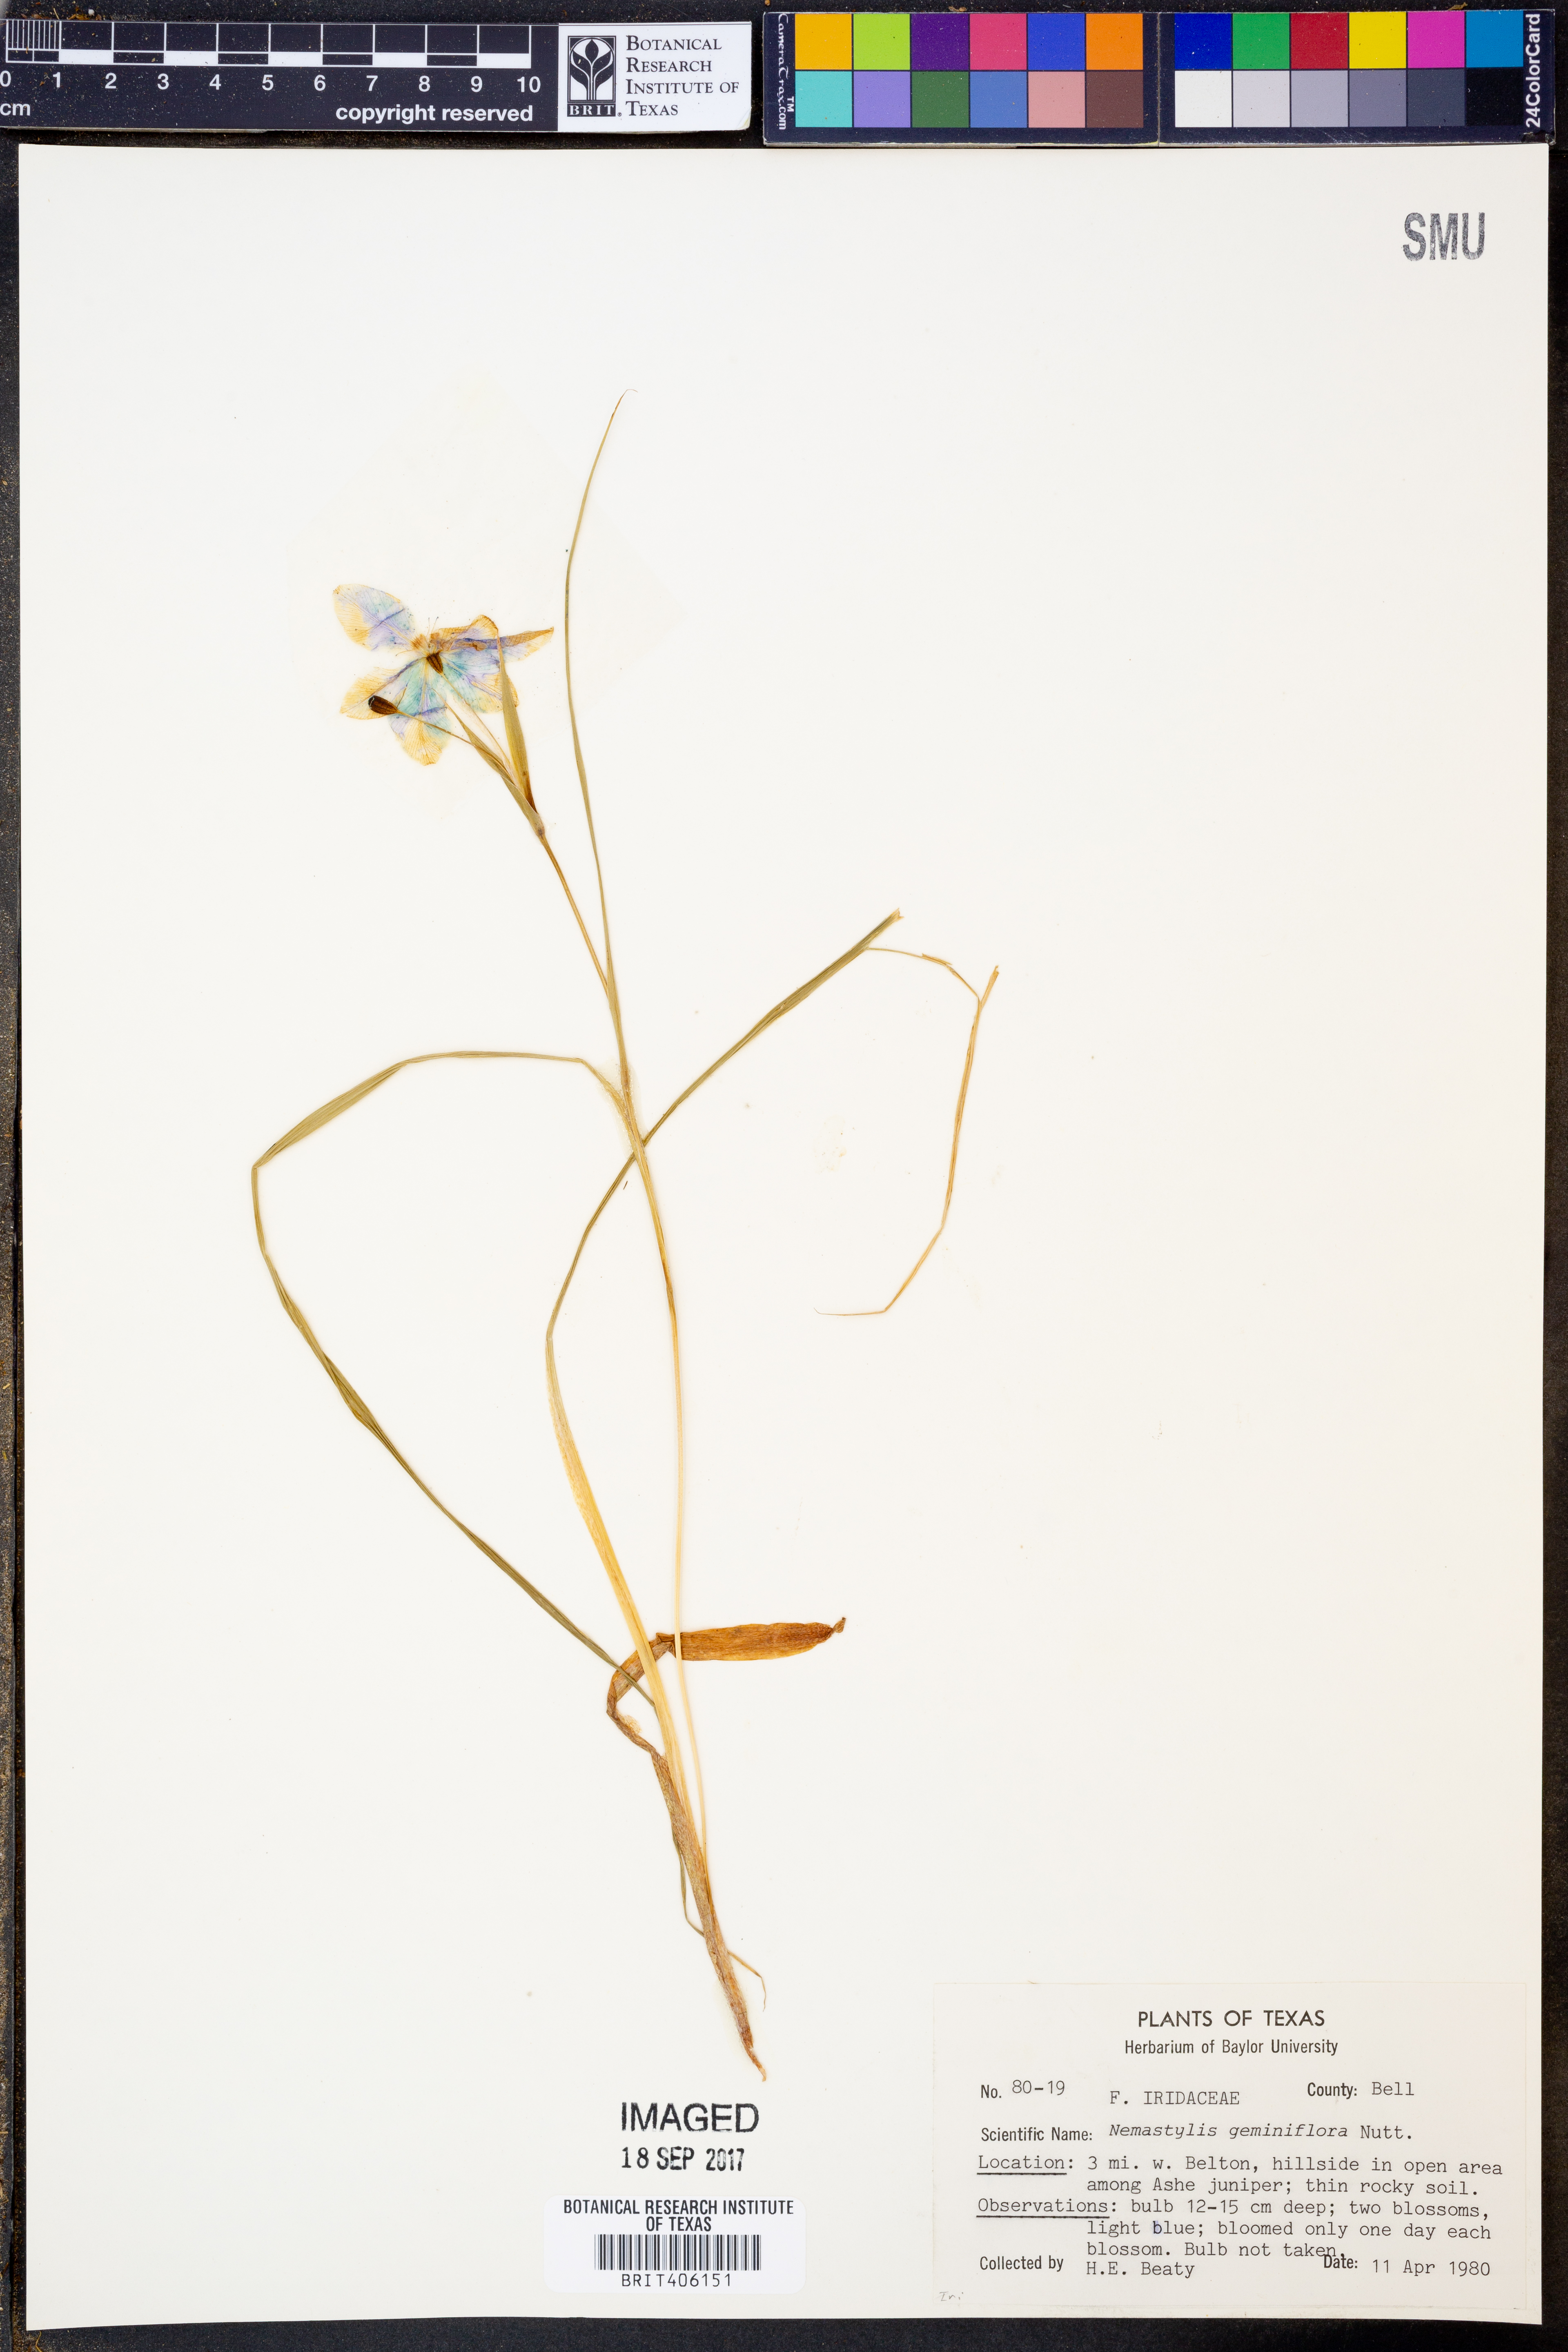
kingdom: Plantae
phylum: Tracheophyta
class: Liliopsida
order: Asparagales
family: Iridaceae
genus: Nemastylis
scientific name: Nemastylis geminiflora
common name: Prairie celestial
